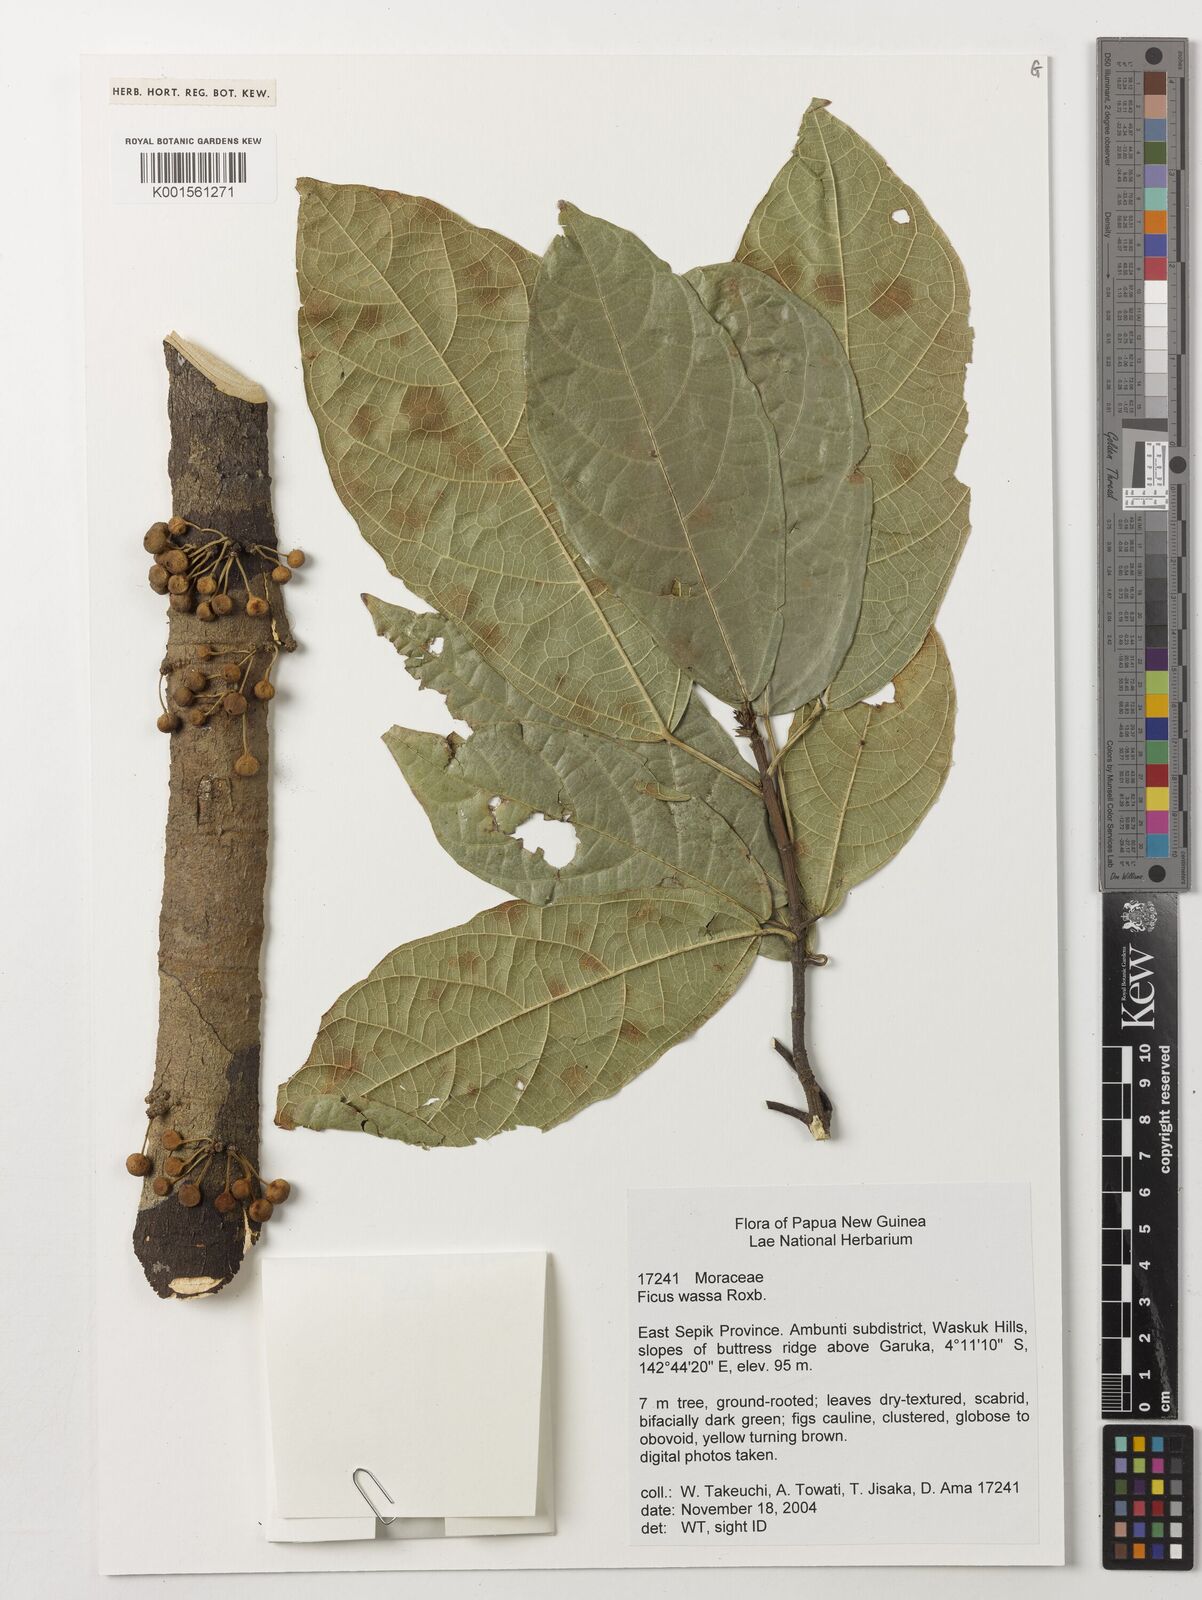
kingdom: Plantae
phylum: Tracheophyta
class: Magnoliopsida
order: Rosales
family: Moraceae
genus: Ficus
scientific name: Ficus wassa
